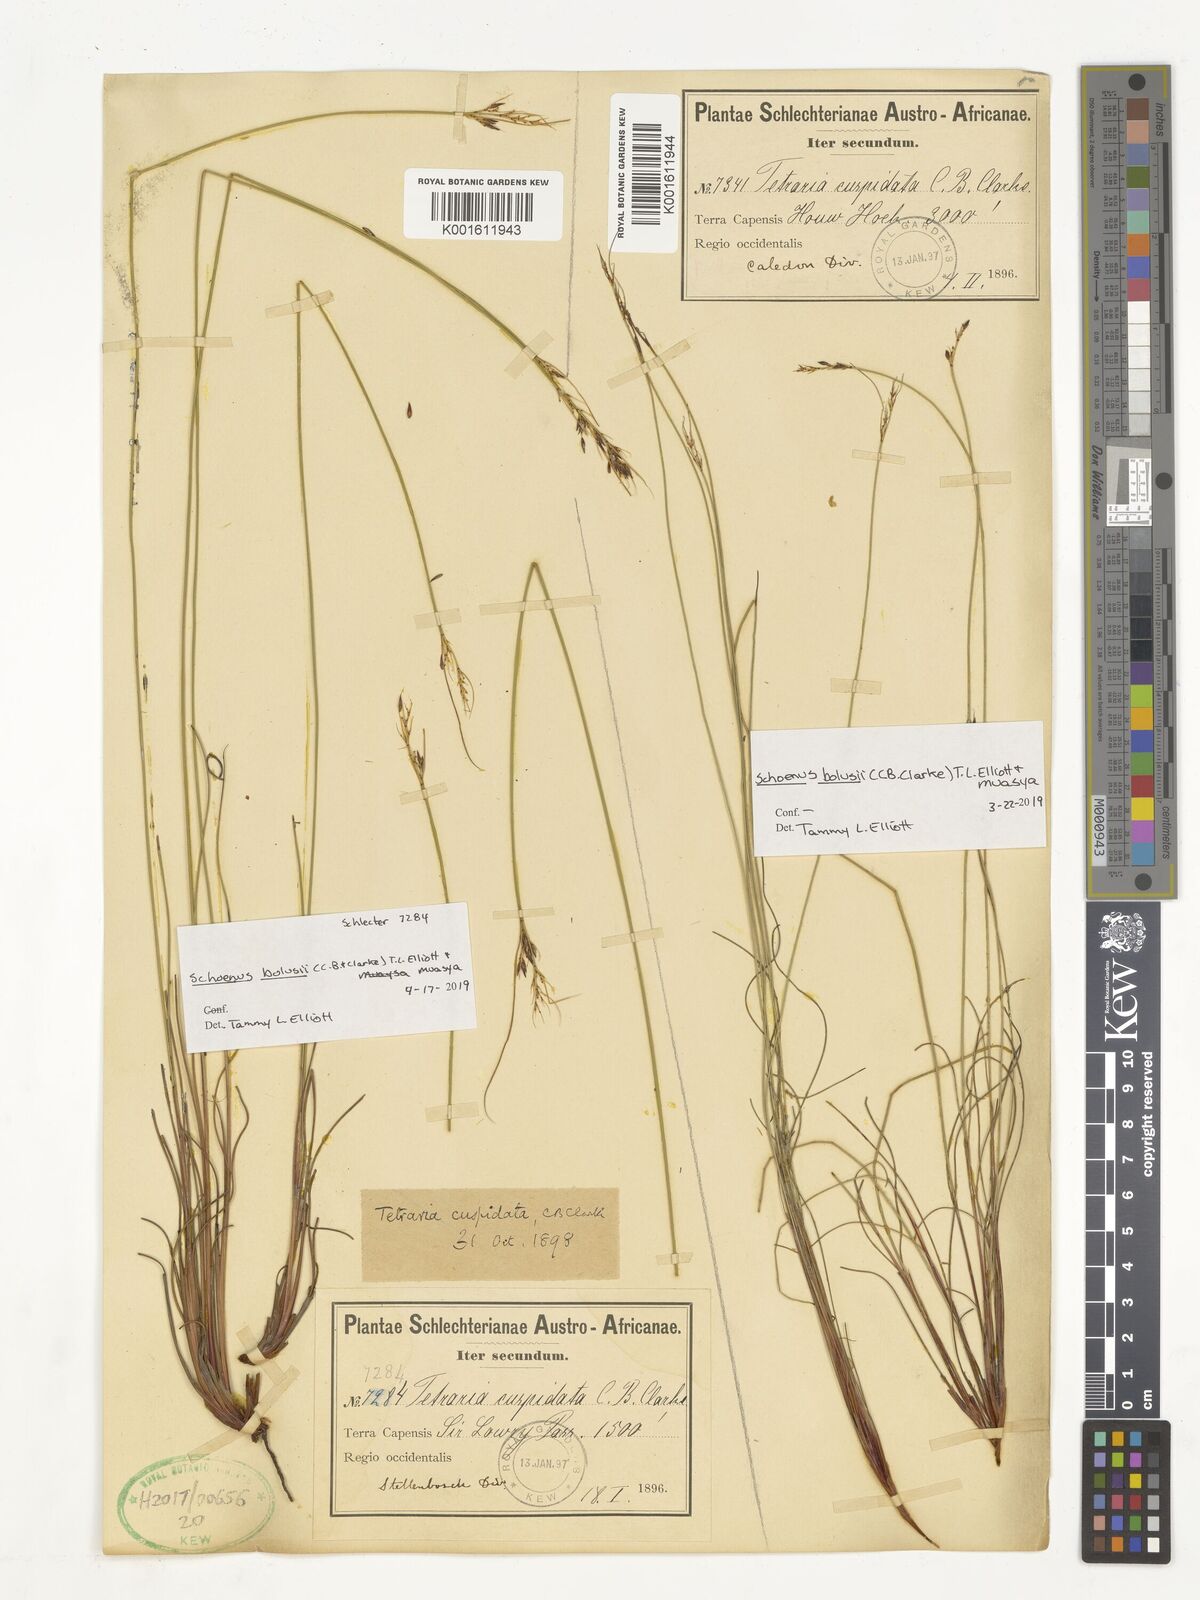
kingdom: Plantae
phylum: Tracheophyta
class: Liliopsida
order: Poales
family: Cyperaceae
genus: Schoenus
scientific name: Schoenus bolusii
